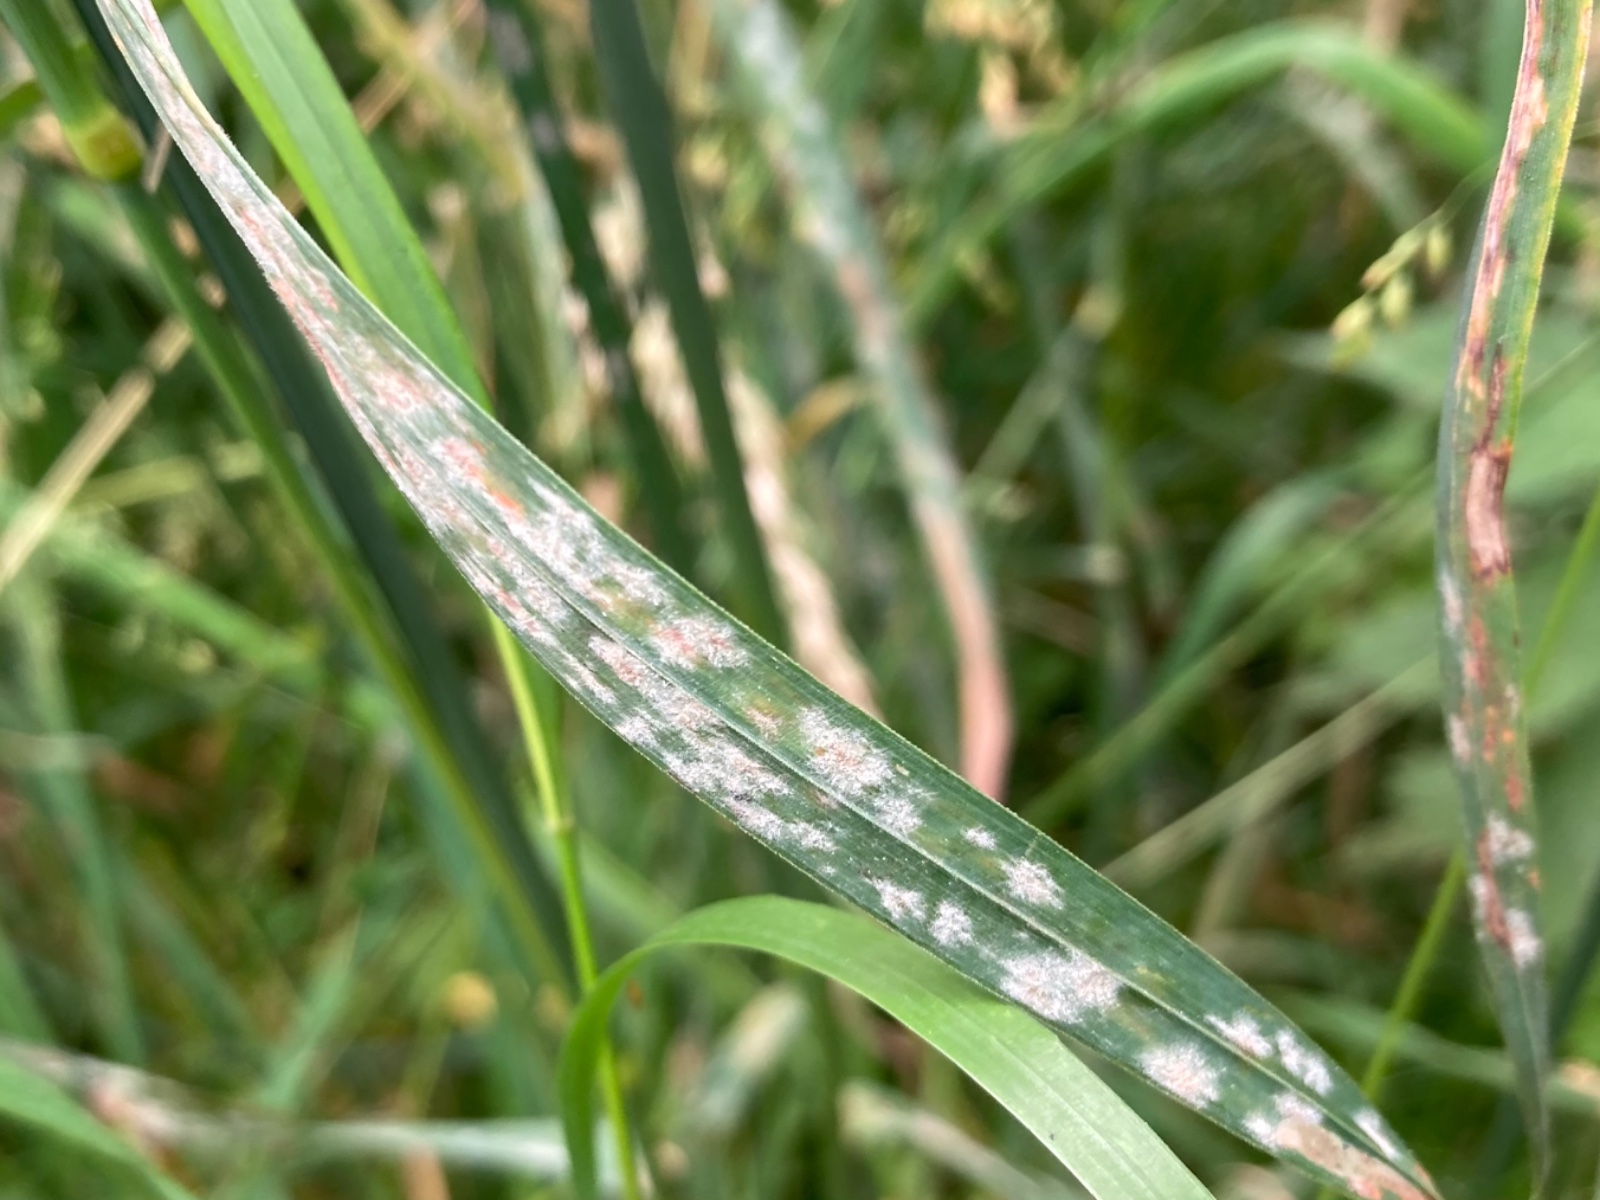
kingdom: Fungi
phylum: Ascomycota
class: Leotiomycetes
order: Helotiales
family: Erysiphaceae
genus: Blumeria
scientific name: Blumeria graminis
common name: græs-meldug
